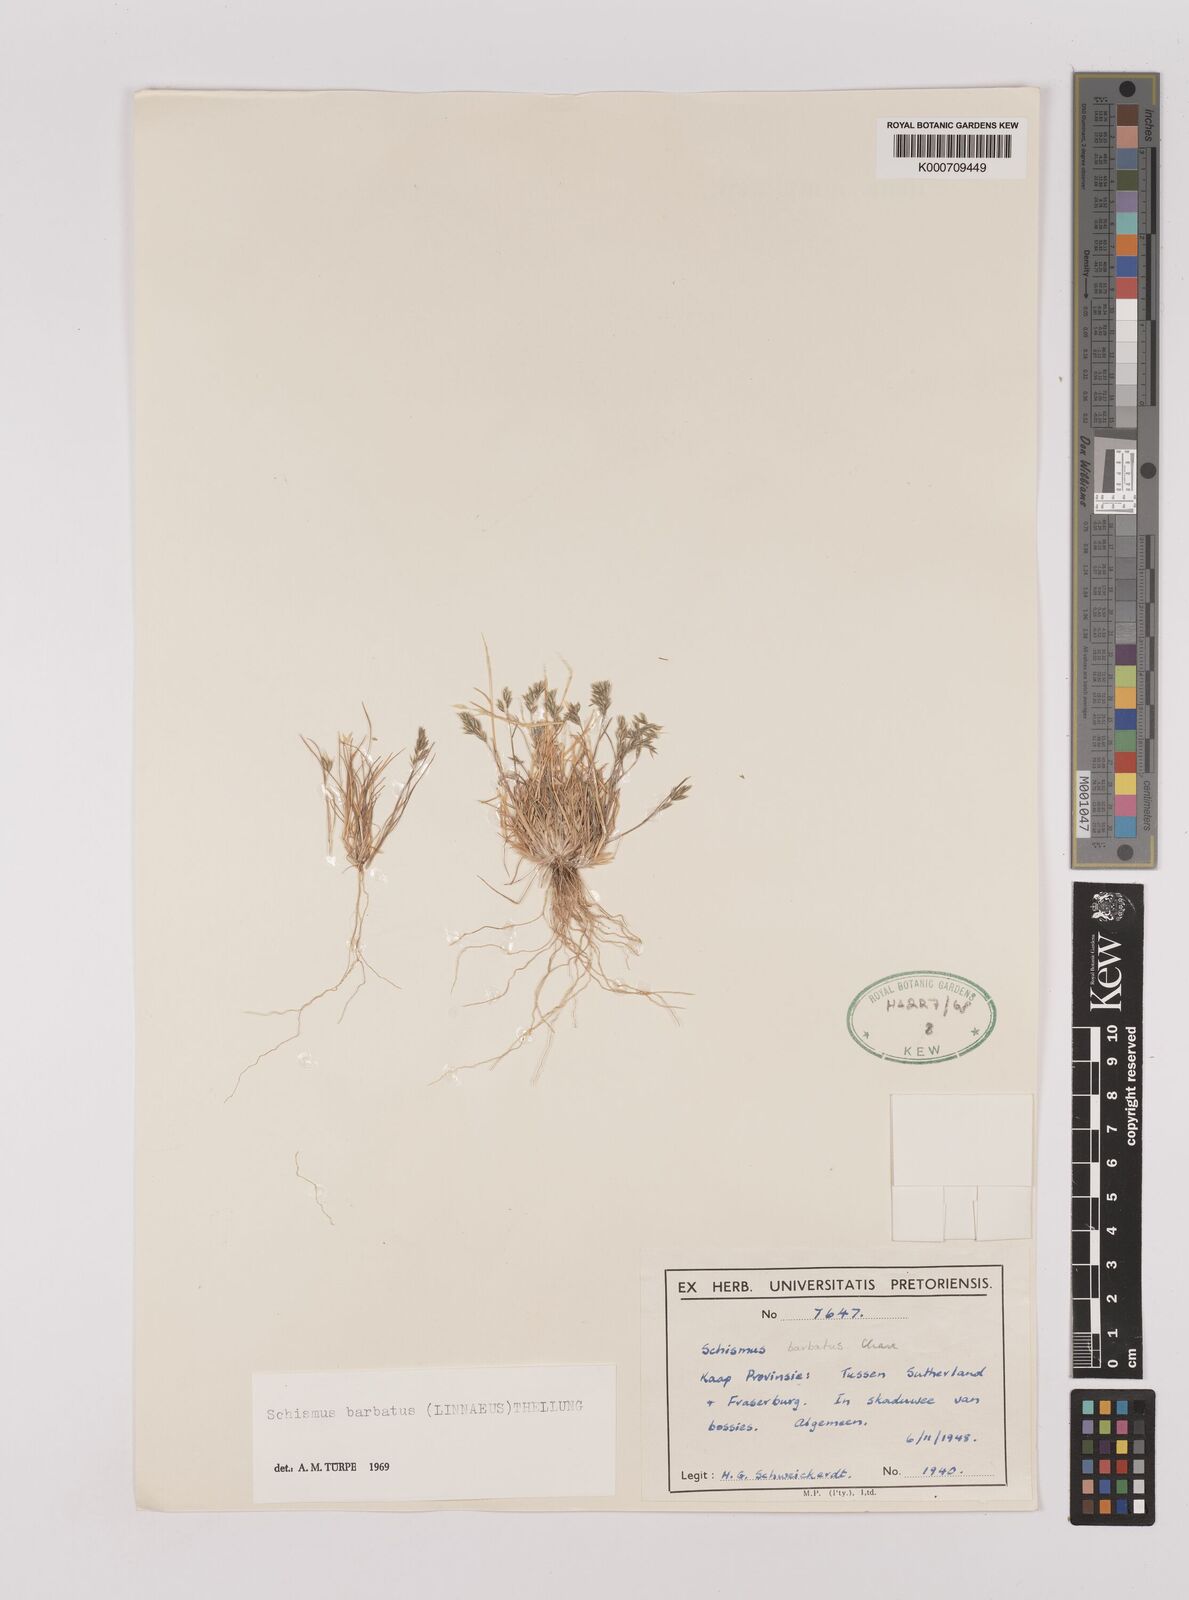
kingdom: Plantae
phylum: Tracheophyta
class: Liliopsida
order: Poales
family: Poaceae
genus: Schismus
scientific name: Schismus barbatus
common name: Kelch-grass
